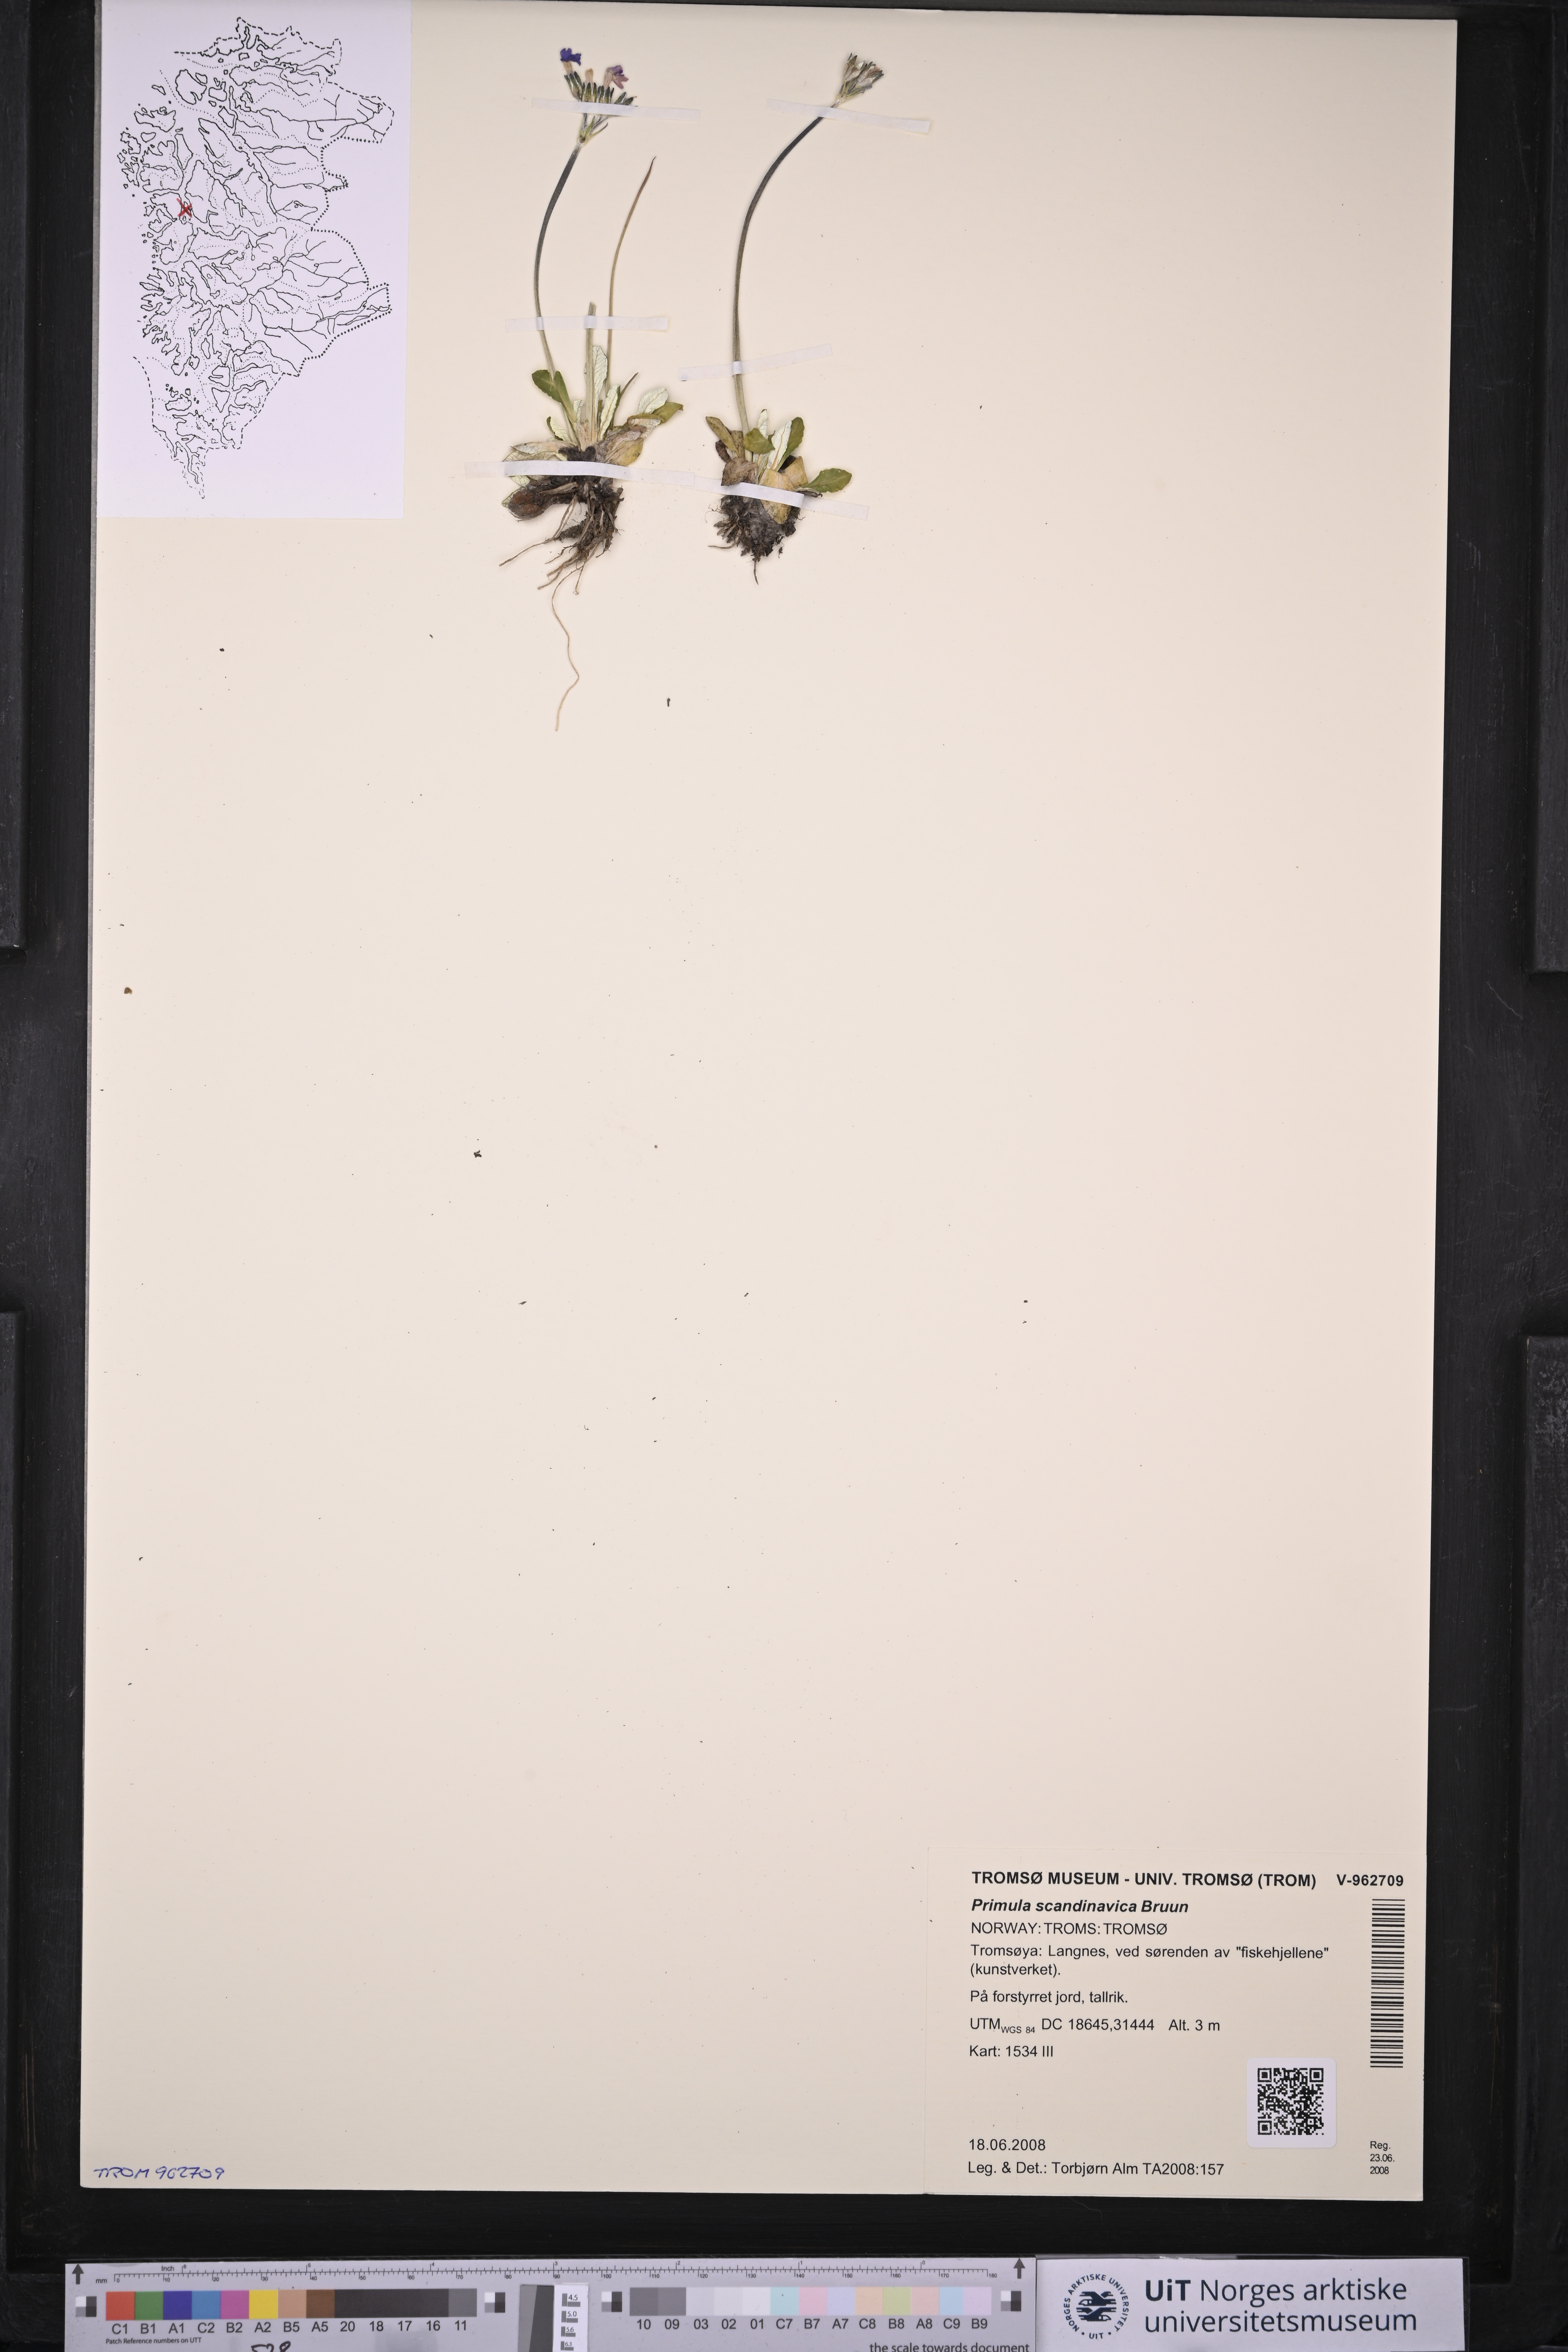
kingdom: Plantae
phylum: Tracheophyta
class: Magnoliopsida
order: Ericales
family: Primulaceae
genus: Primula
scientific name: Primula scandinavica
